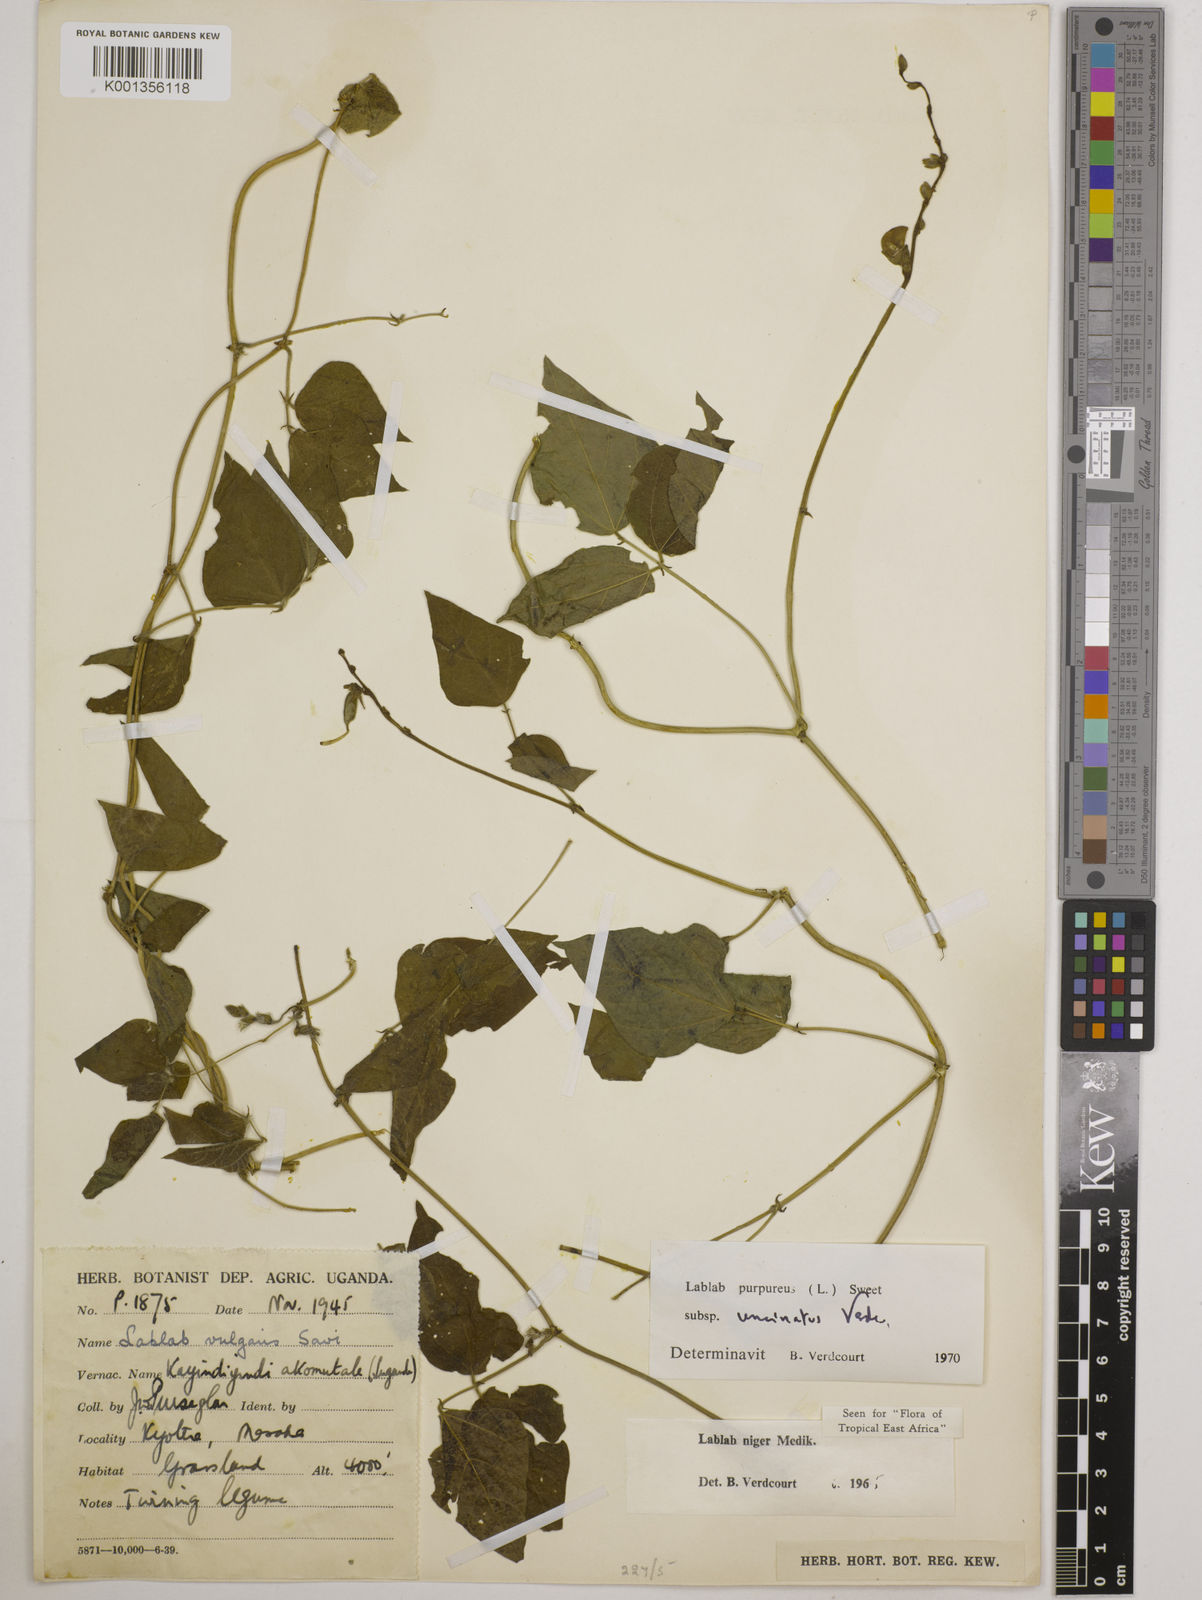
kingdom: Plantae
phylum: Tracheophyta
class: Magnoliopsida
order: Fabales
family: Fabaceae
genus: Lablab
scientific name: Lablab purpureus
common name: Lablab-bean
